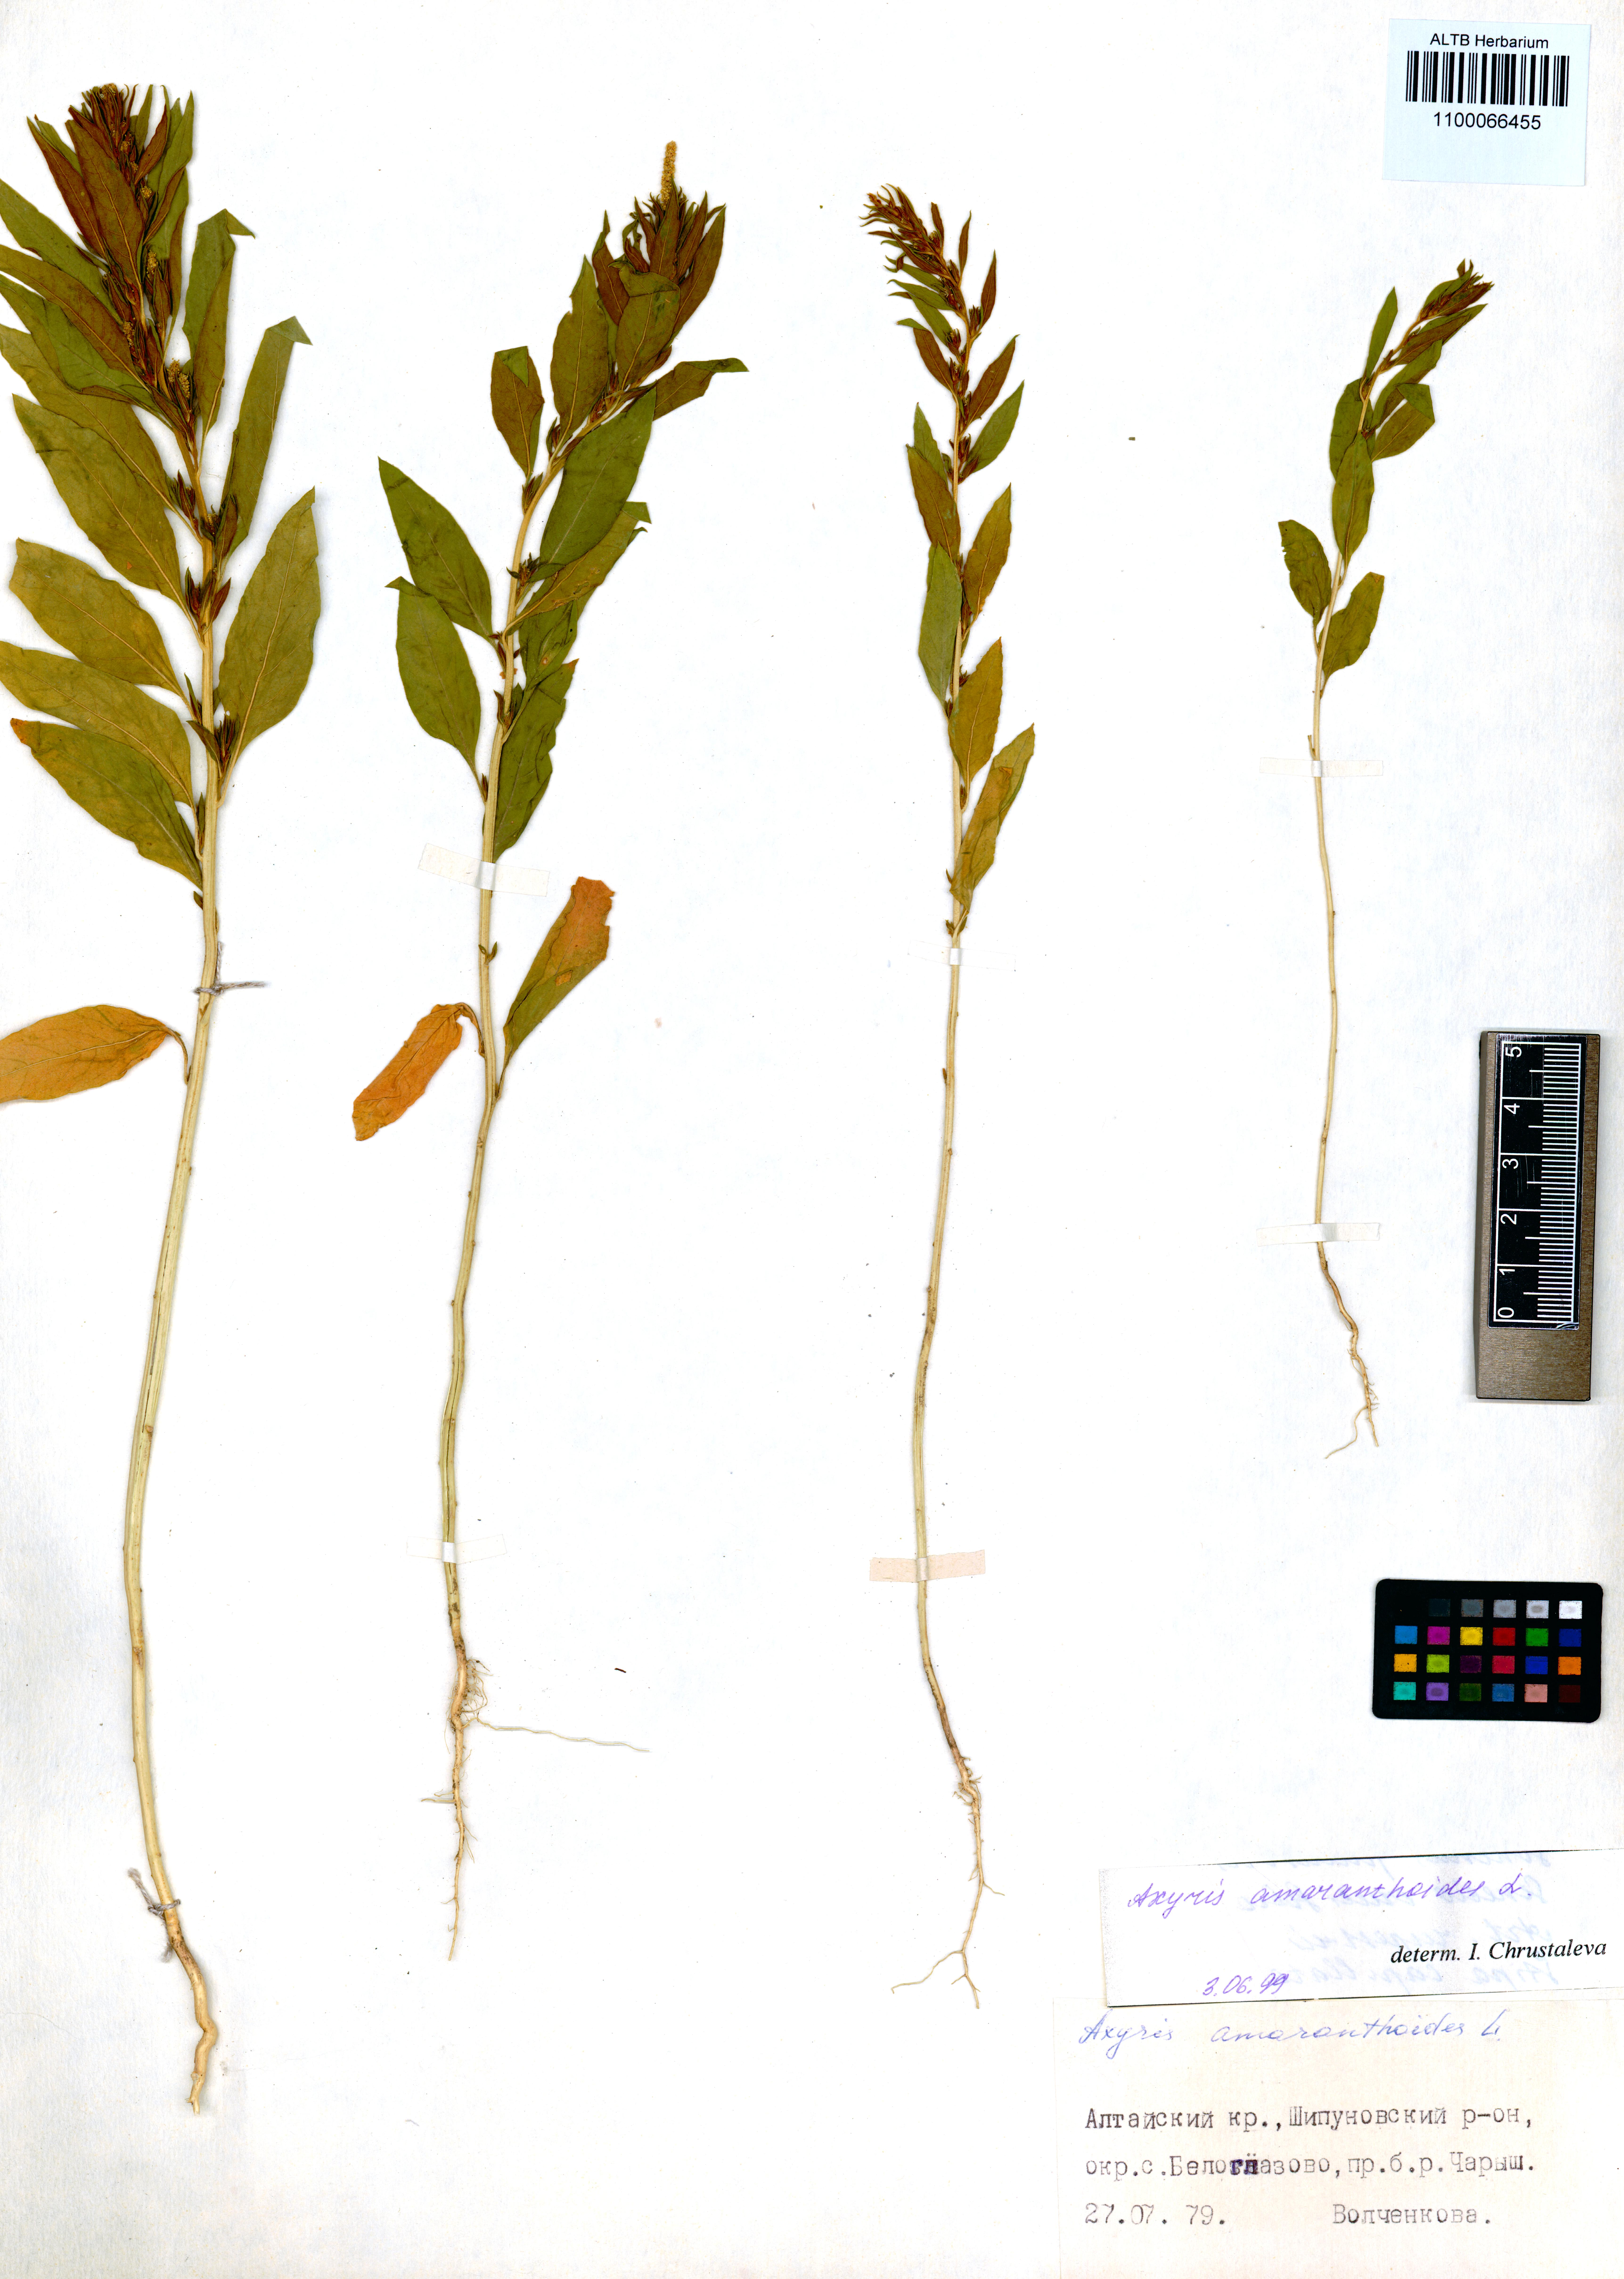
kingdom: Plantae
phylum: Tracheophyta
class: Magnoliopsida
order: Caryophyllales
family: Amaranthaceae
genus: Axyris
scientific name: Axyris amaranthoides
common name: Russian pigweed
